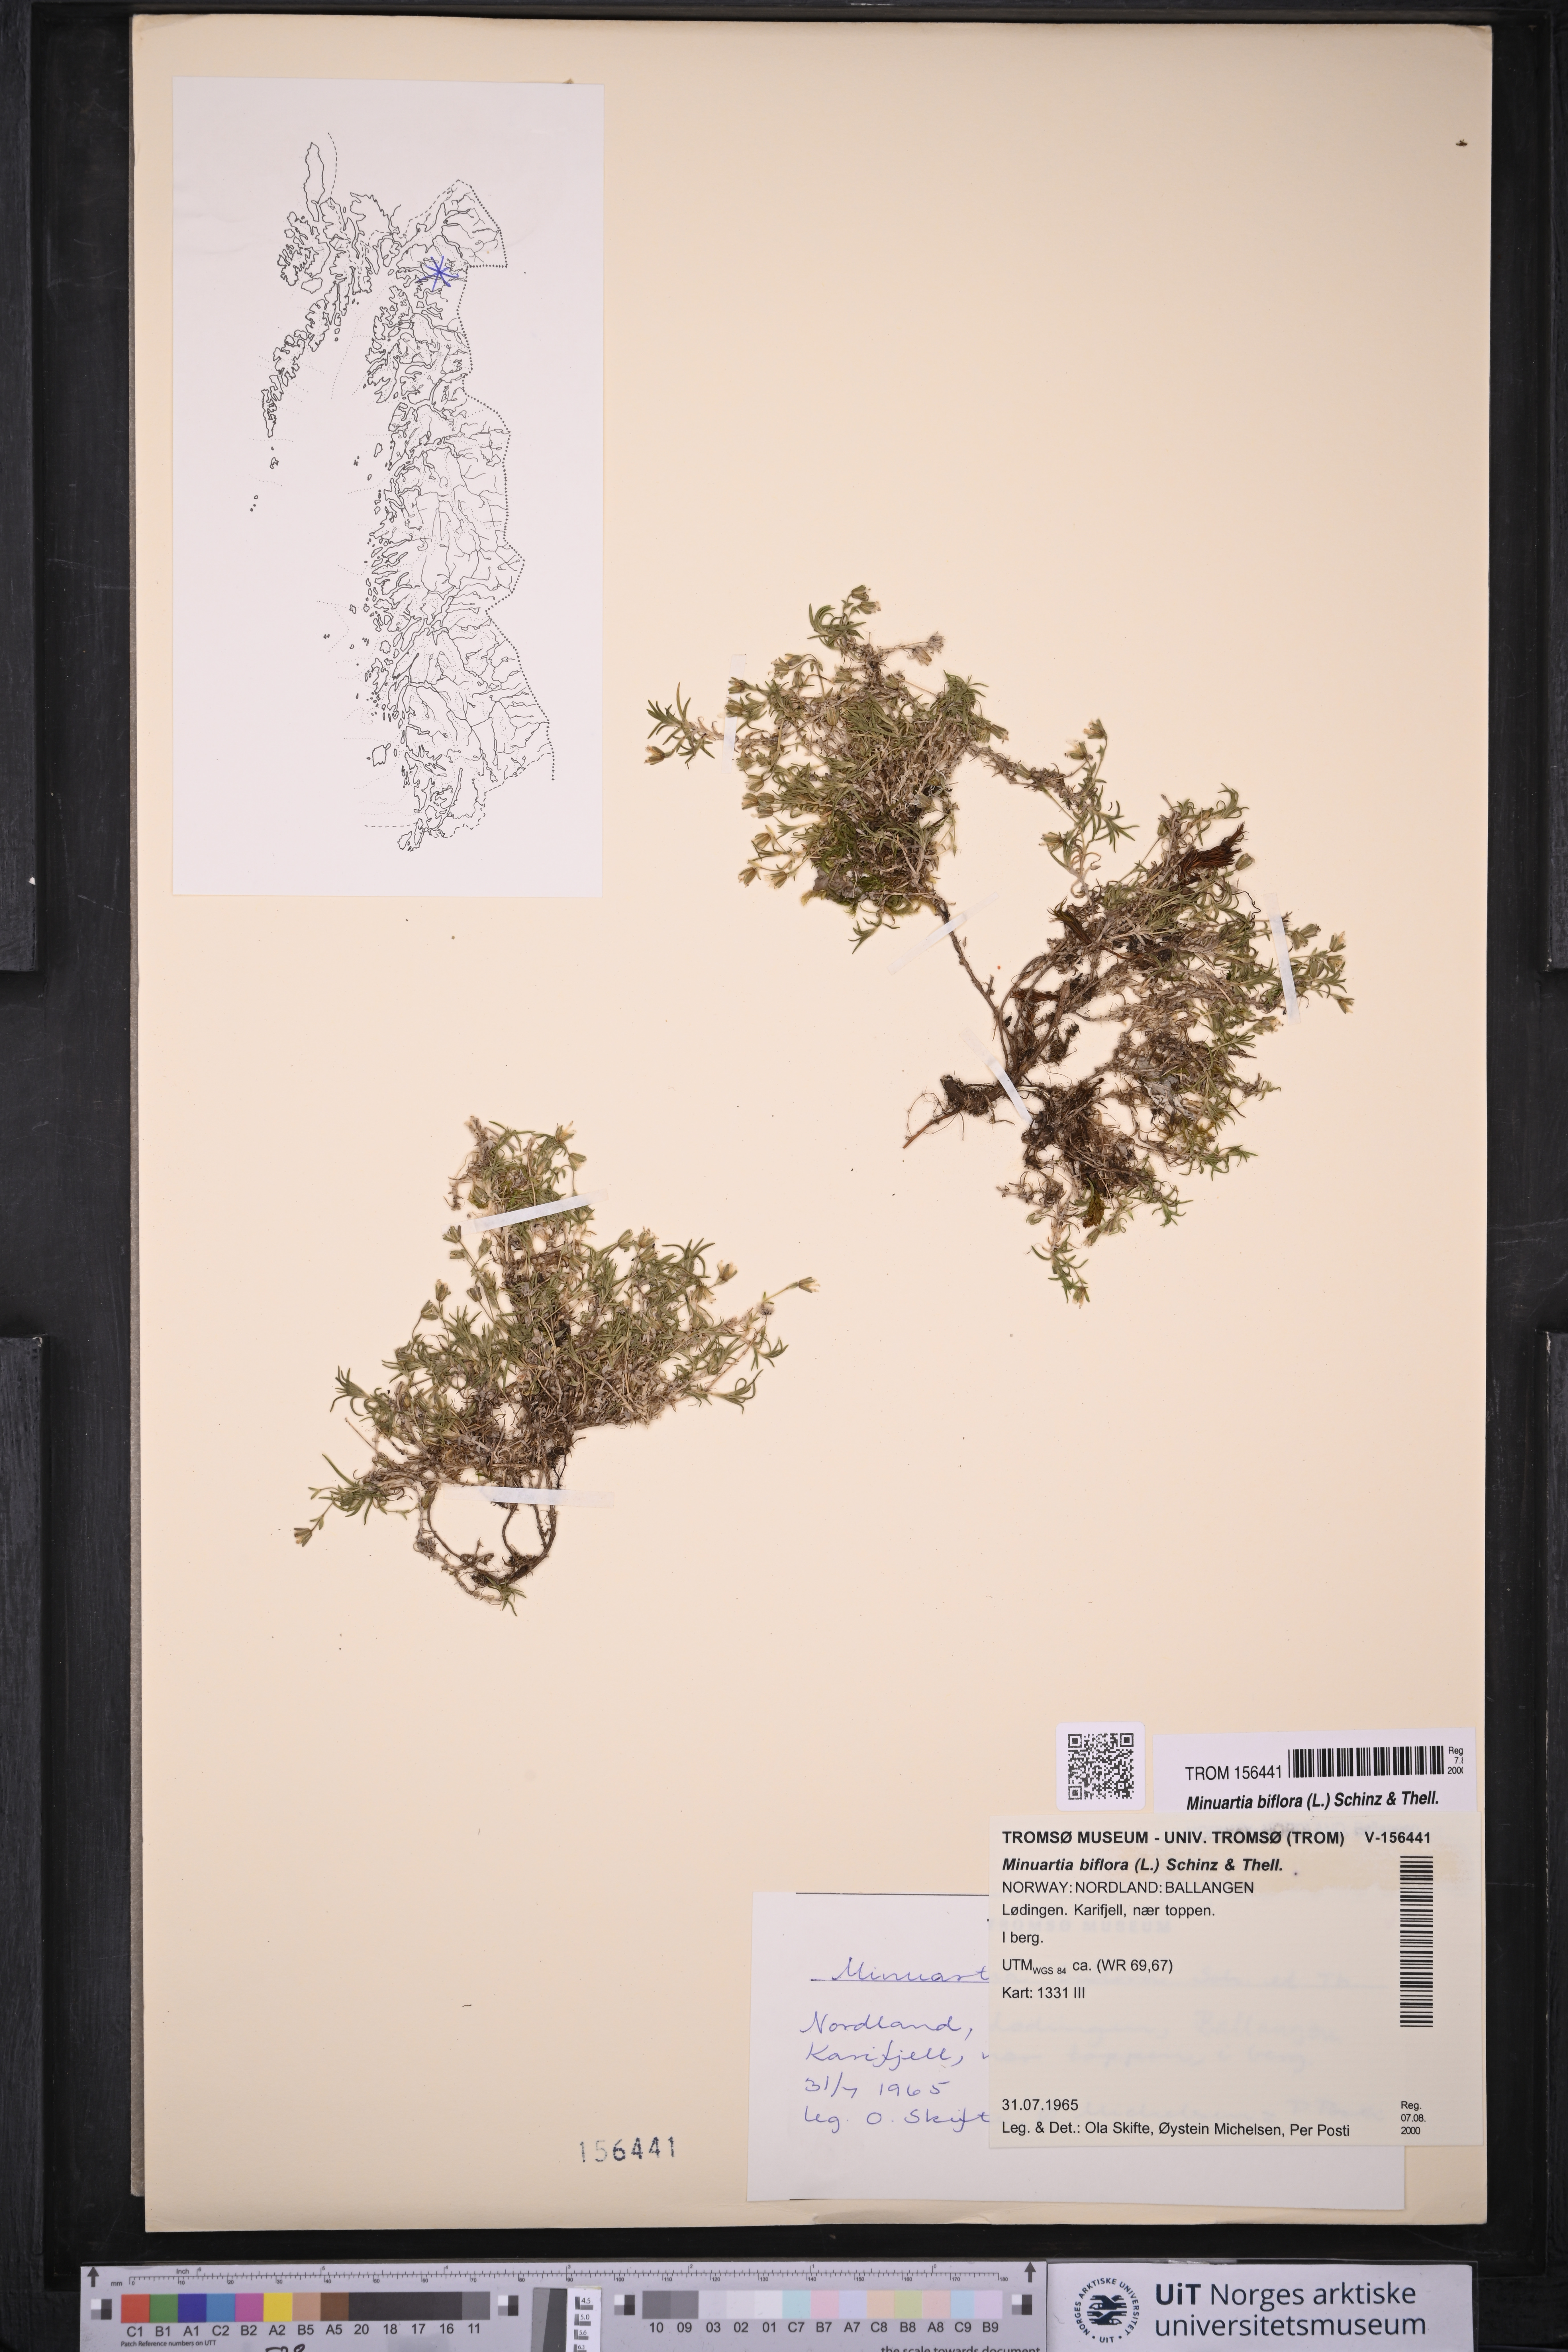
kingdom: Plantae
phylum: Tracheophyta
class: Magnoliopsida
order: Caryophyllales
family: Caryophyllaceae
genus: Cherleria
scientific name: Cherleria biflora
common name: Mountain sandwort
